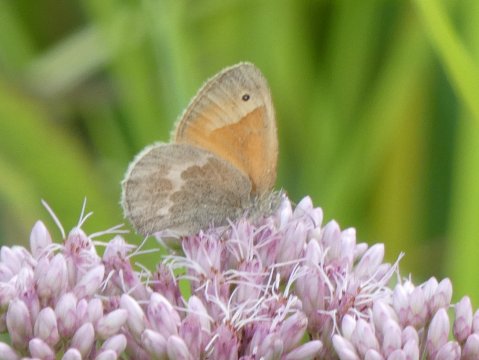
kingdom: Animalia
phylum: Arthropoda
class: Insecta
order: Lepidoptera
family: Nymphalidae
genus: Coenonympha
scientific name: Coenonympha tullia
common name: Large Heath
